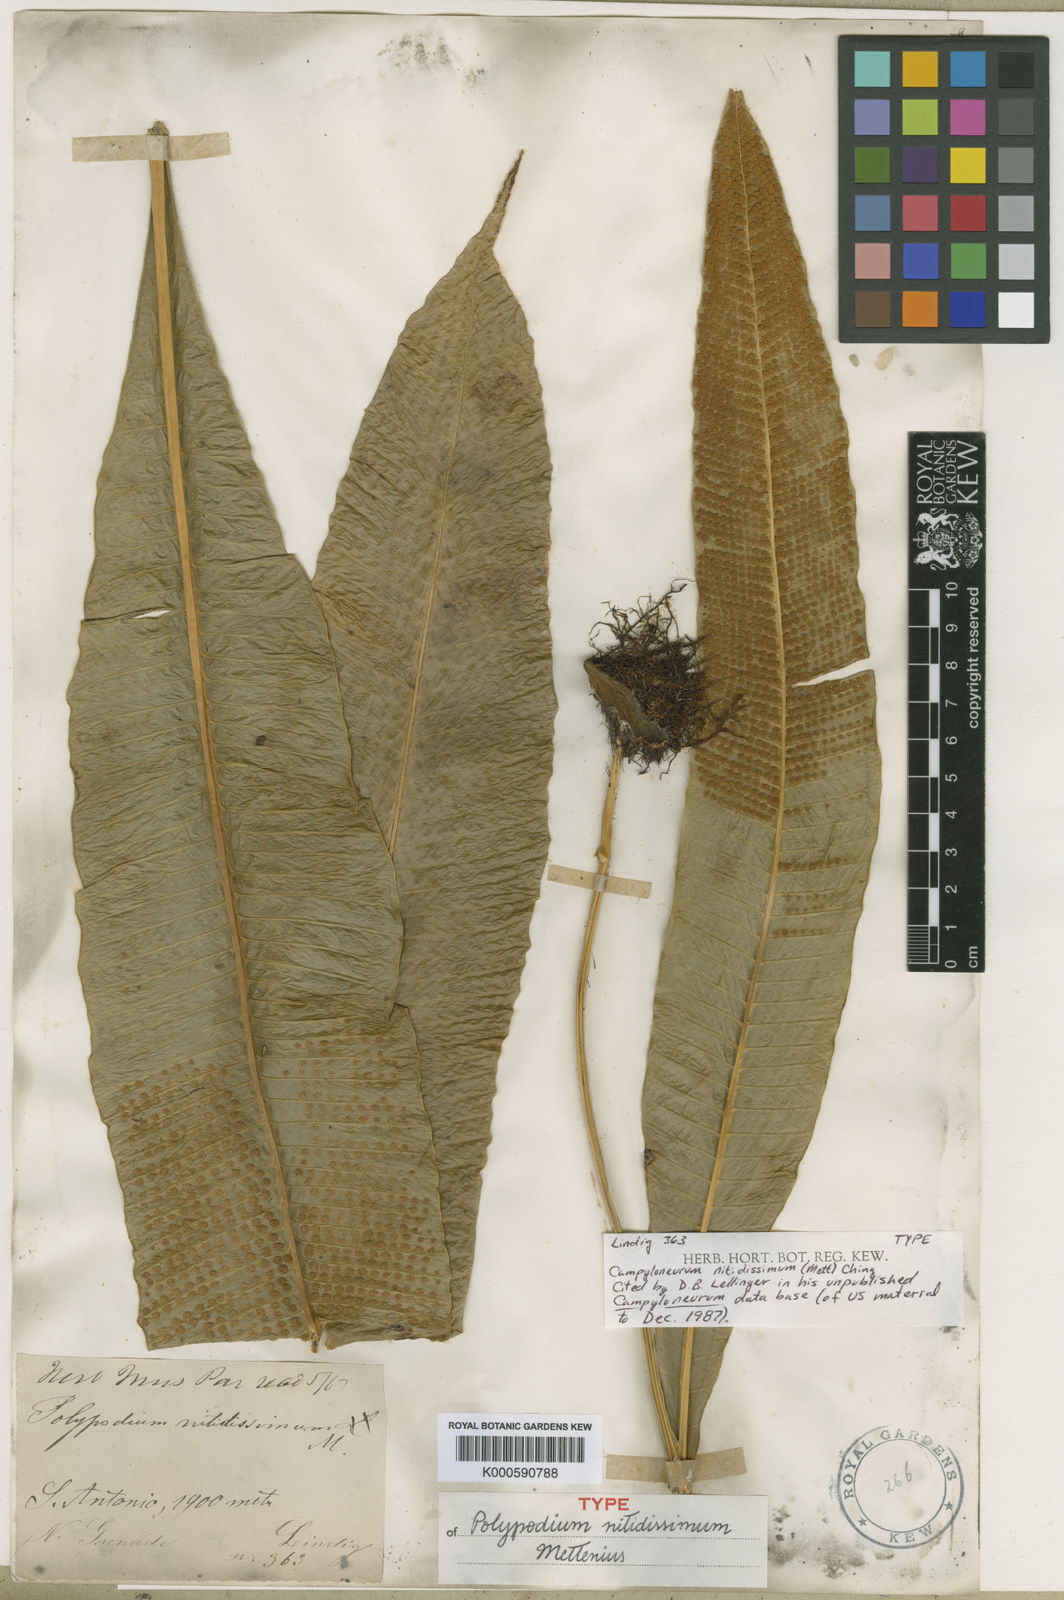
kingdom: Plantae
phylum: Tracheophyta
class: Polypodiopsida
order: Polypodiales
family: Polypodiaceae
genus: Campyloneurum
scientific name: Campyloneurum nitidissimum
